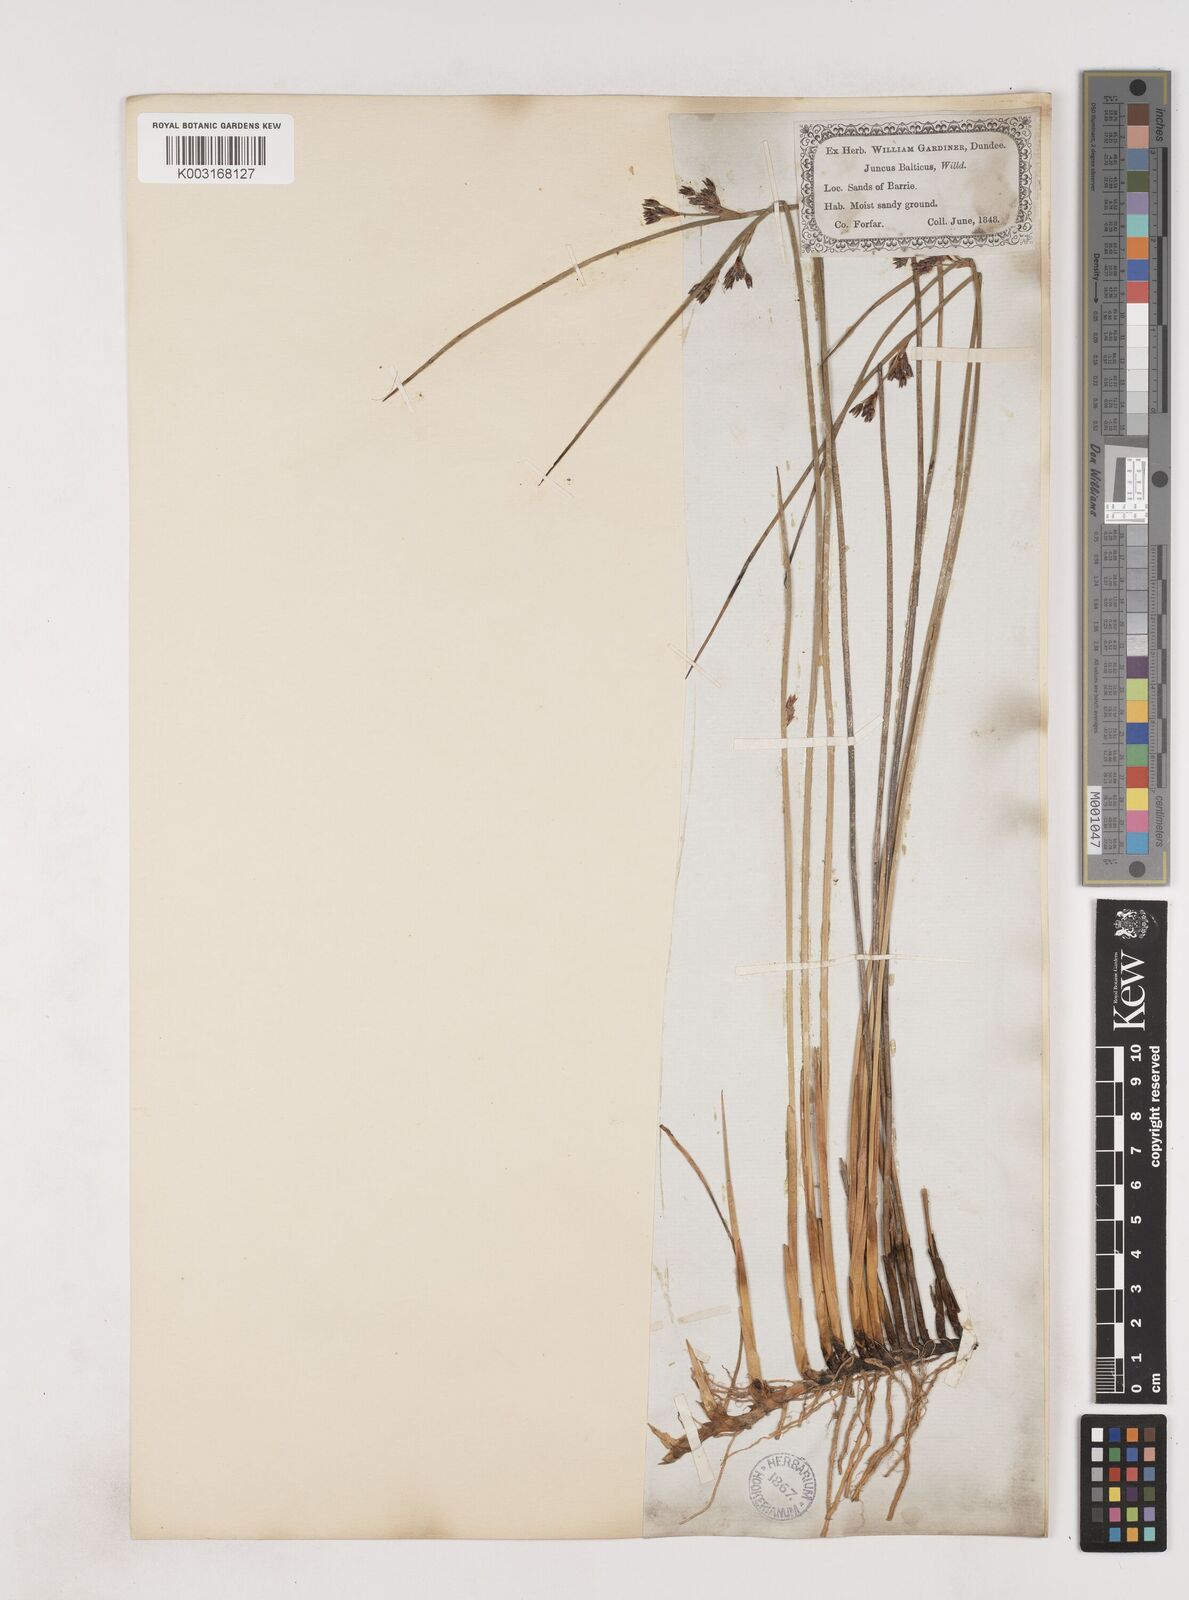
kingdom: Plantae
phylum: Tracheophyta
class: Liliopsida
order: Poales
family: Juncaceae
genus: Juncus
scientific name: Juncus balticus
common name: Baltic rush
